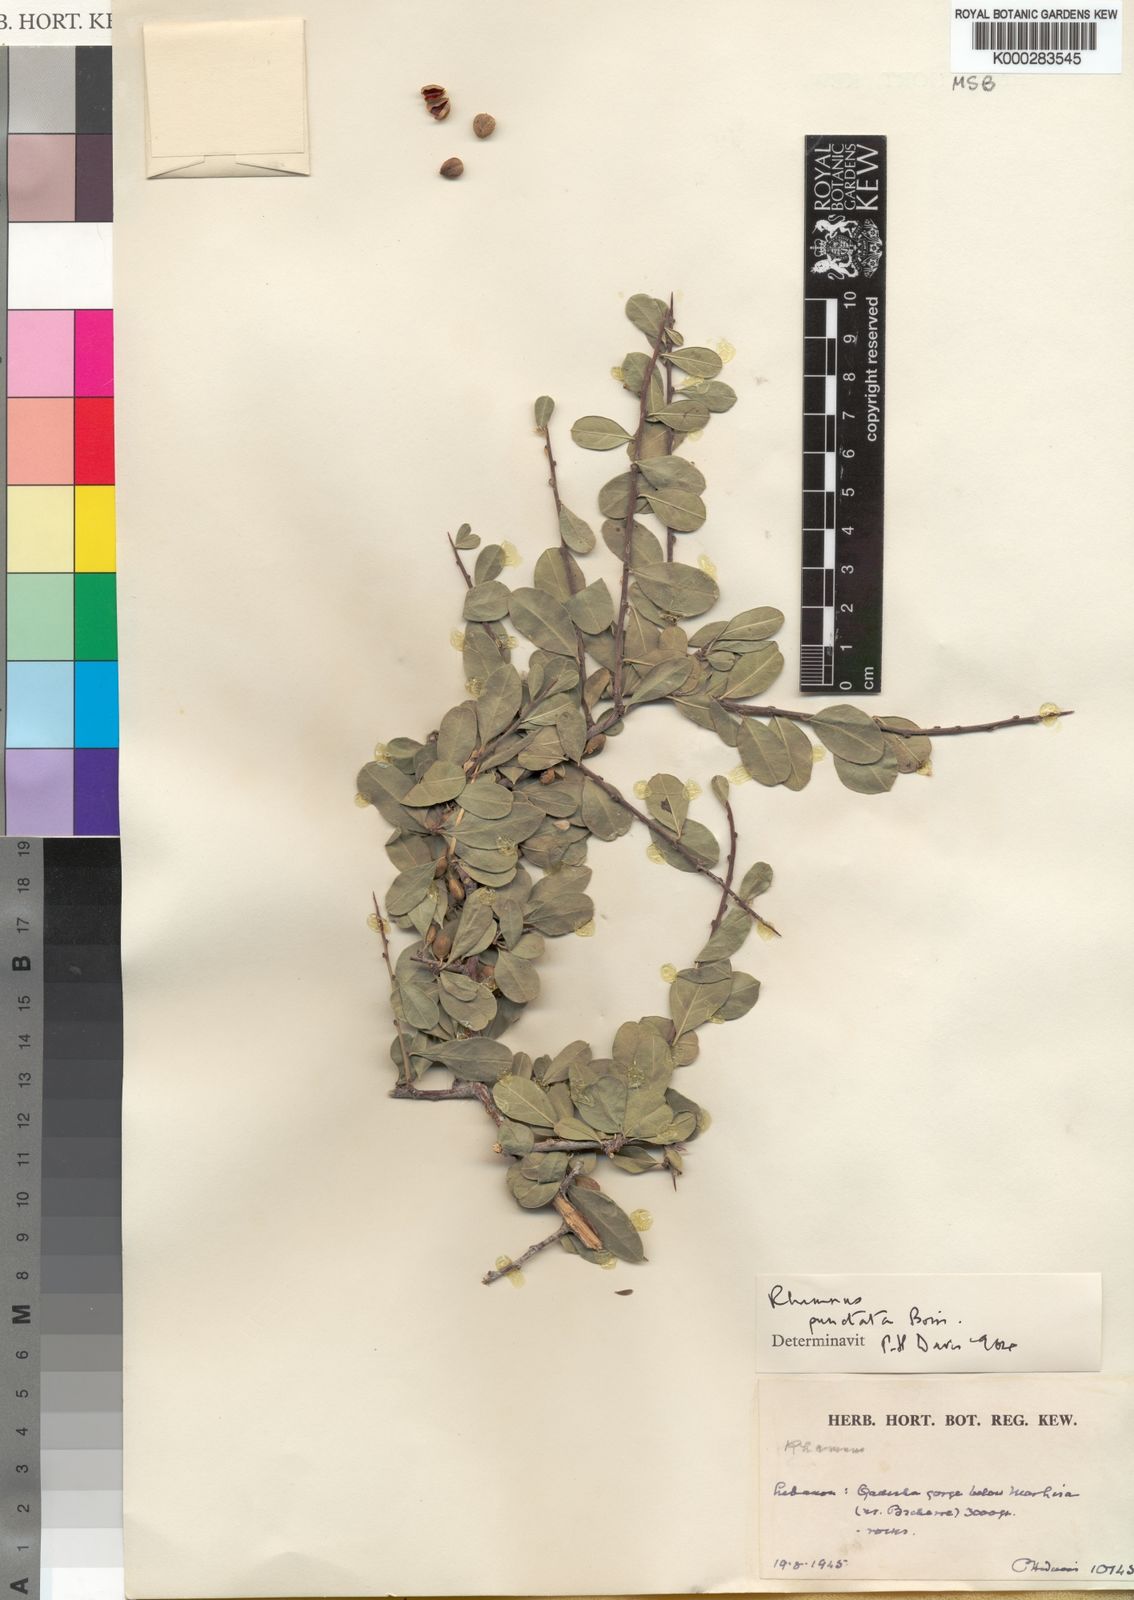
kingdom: Plantae
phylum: Tracheophyta
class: Magnoliopsida
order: Rosales
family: Rhamnaceae
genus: Rhamnus
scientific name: Rhamnus punctata
